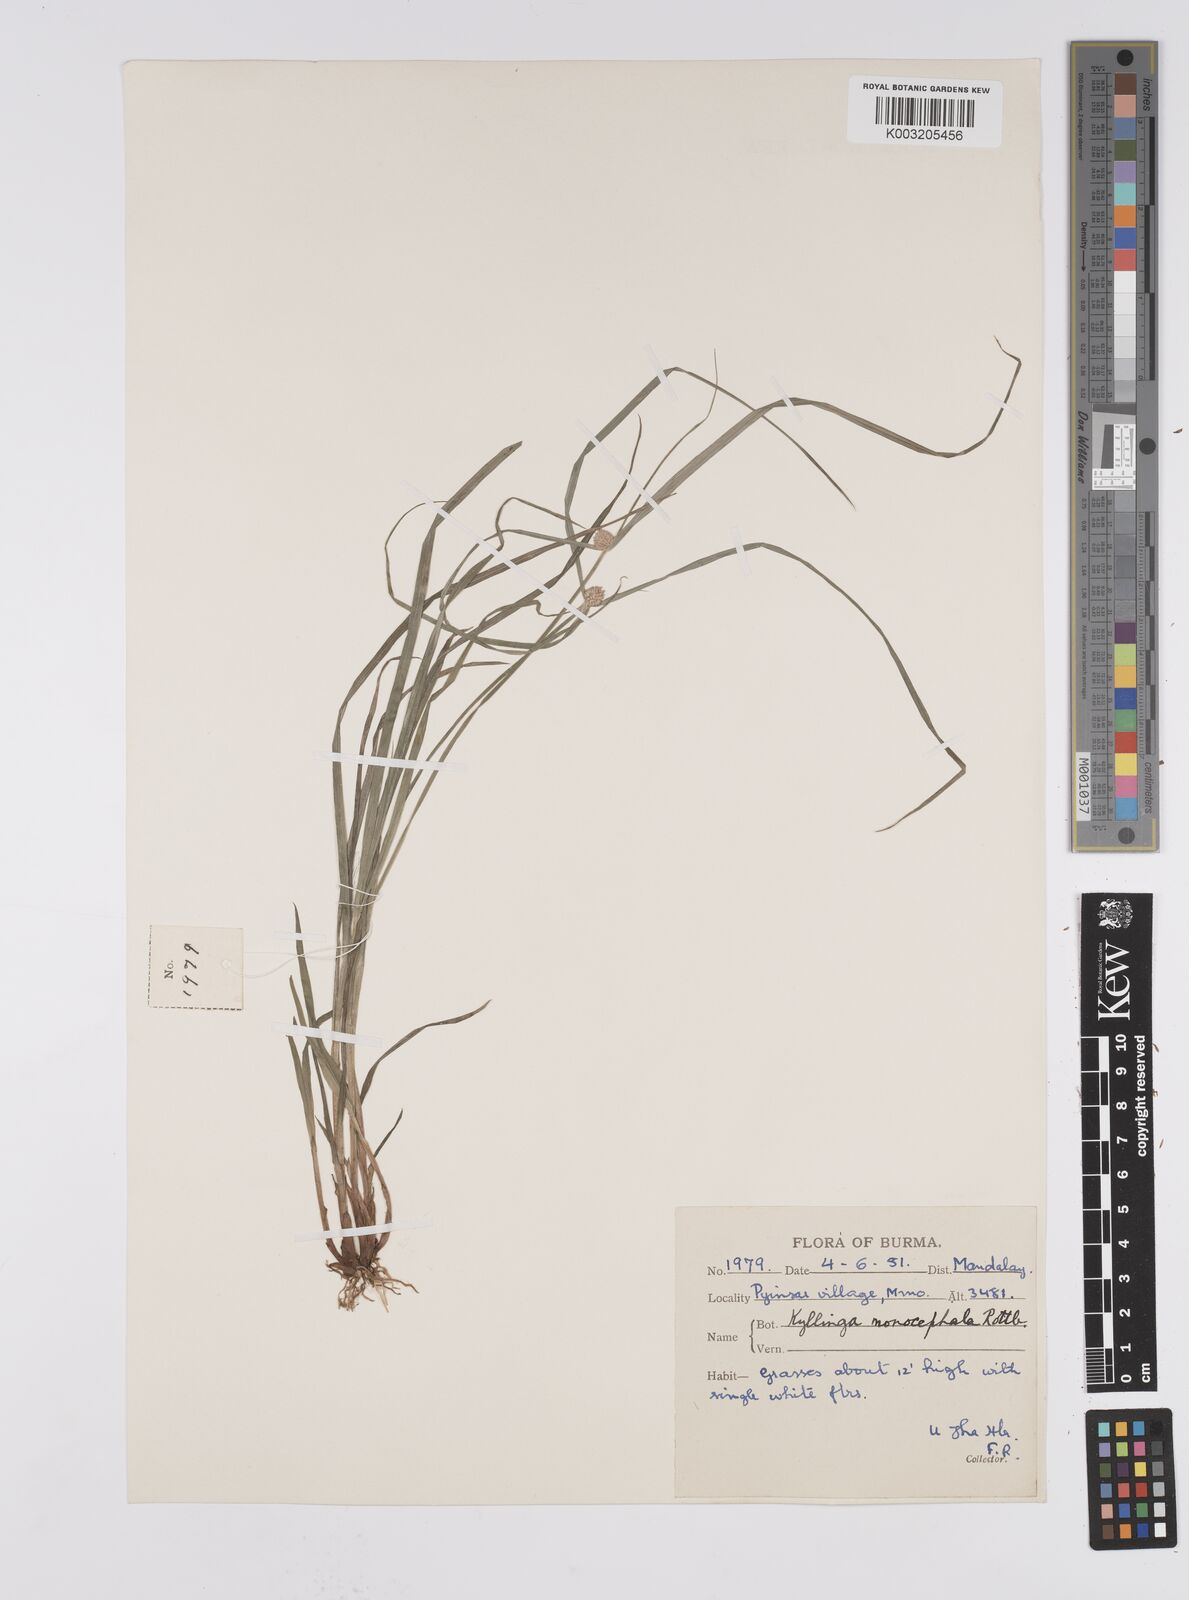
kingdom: Plantae
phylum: Tracheophyta
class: Liliopsida
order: Poales
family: Cyperaceae
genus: Cyperus
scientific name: Cyperus nemoralis
